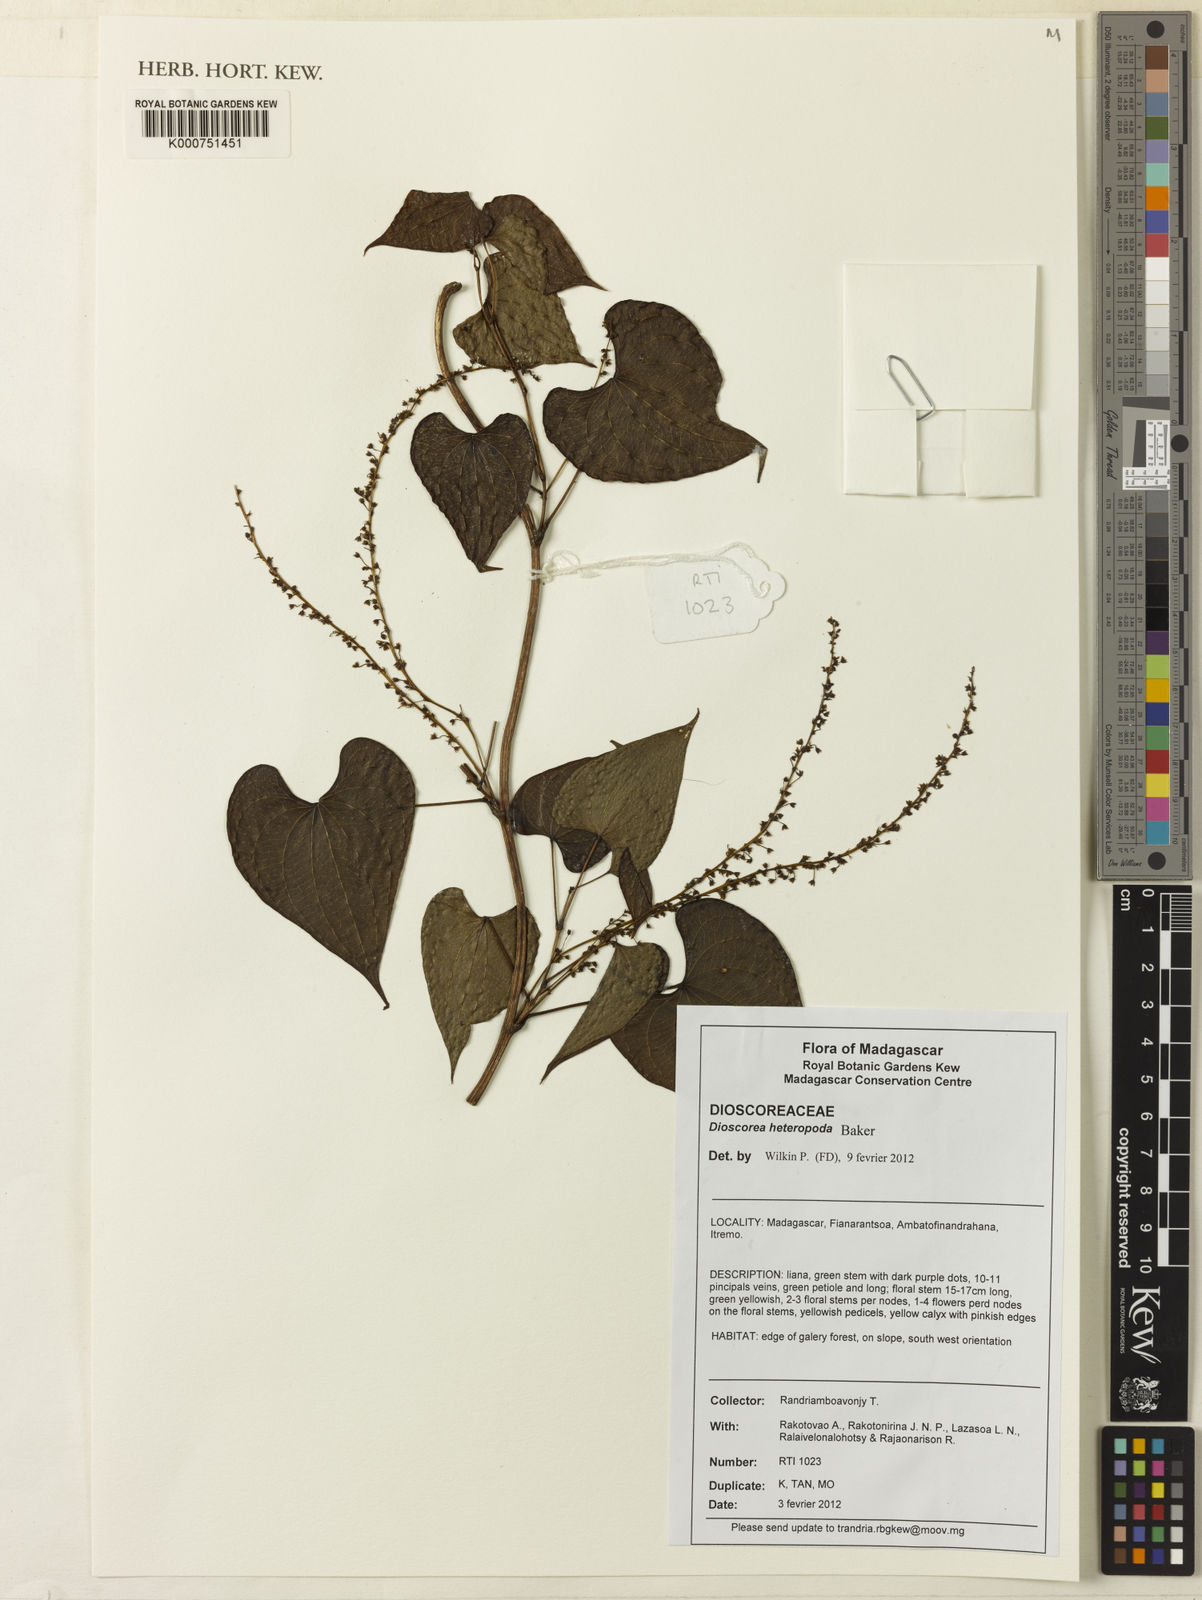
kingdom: Plantae
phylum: Tracheophyta
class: Liliopsida
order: Dioscoreales
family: Dioscoreaceae
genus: Dioscorea
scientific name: Dioscorea heteropoda
